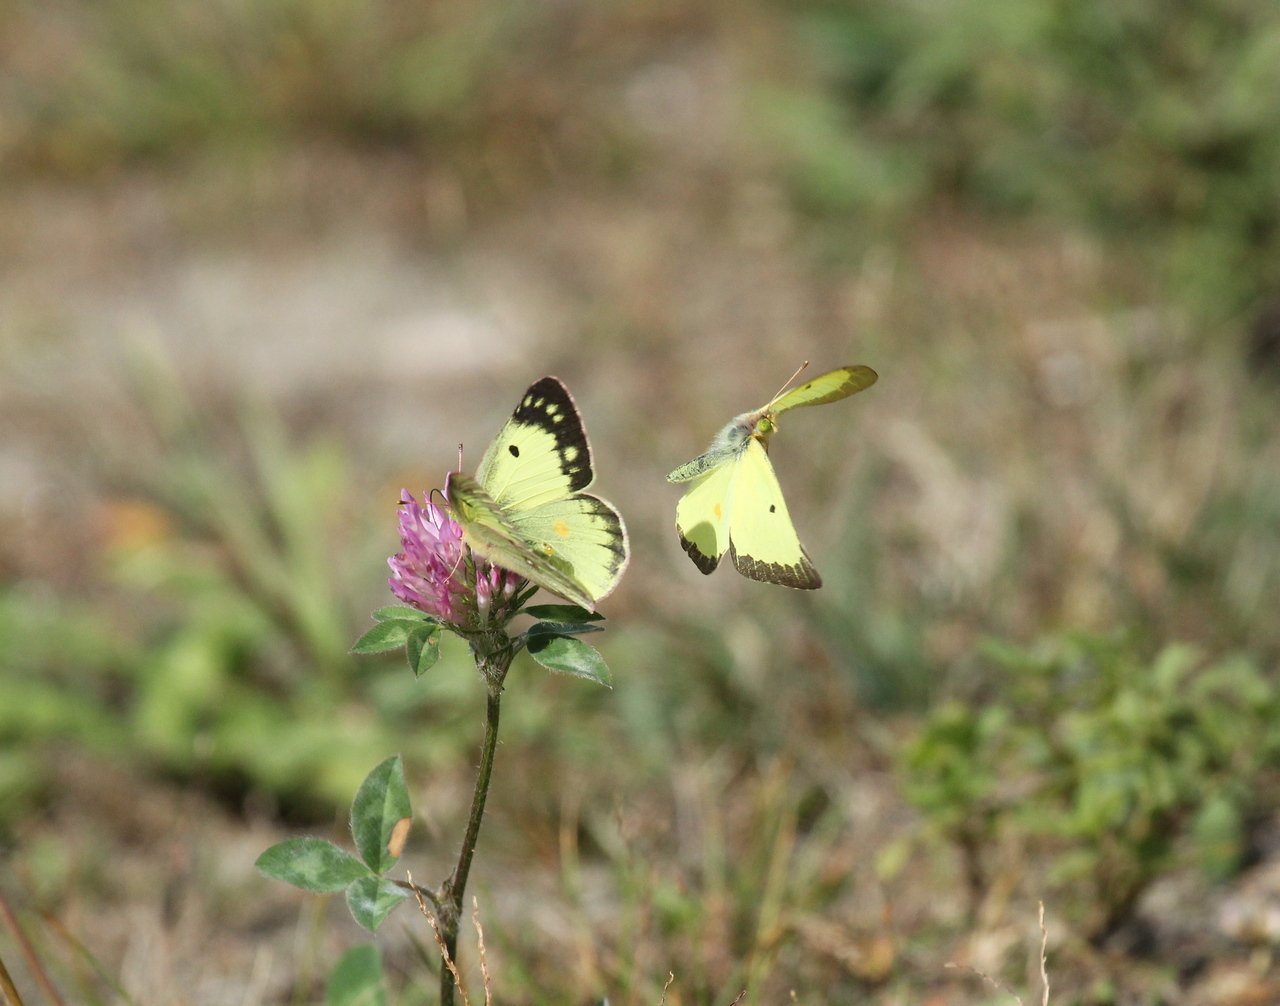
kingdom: Animalia
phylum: Arthropoda
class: Insecta
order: Lepidoptera
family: Pieridae
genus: Colias
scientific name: Colias philodice
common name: Clouded Sulphur
